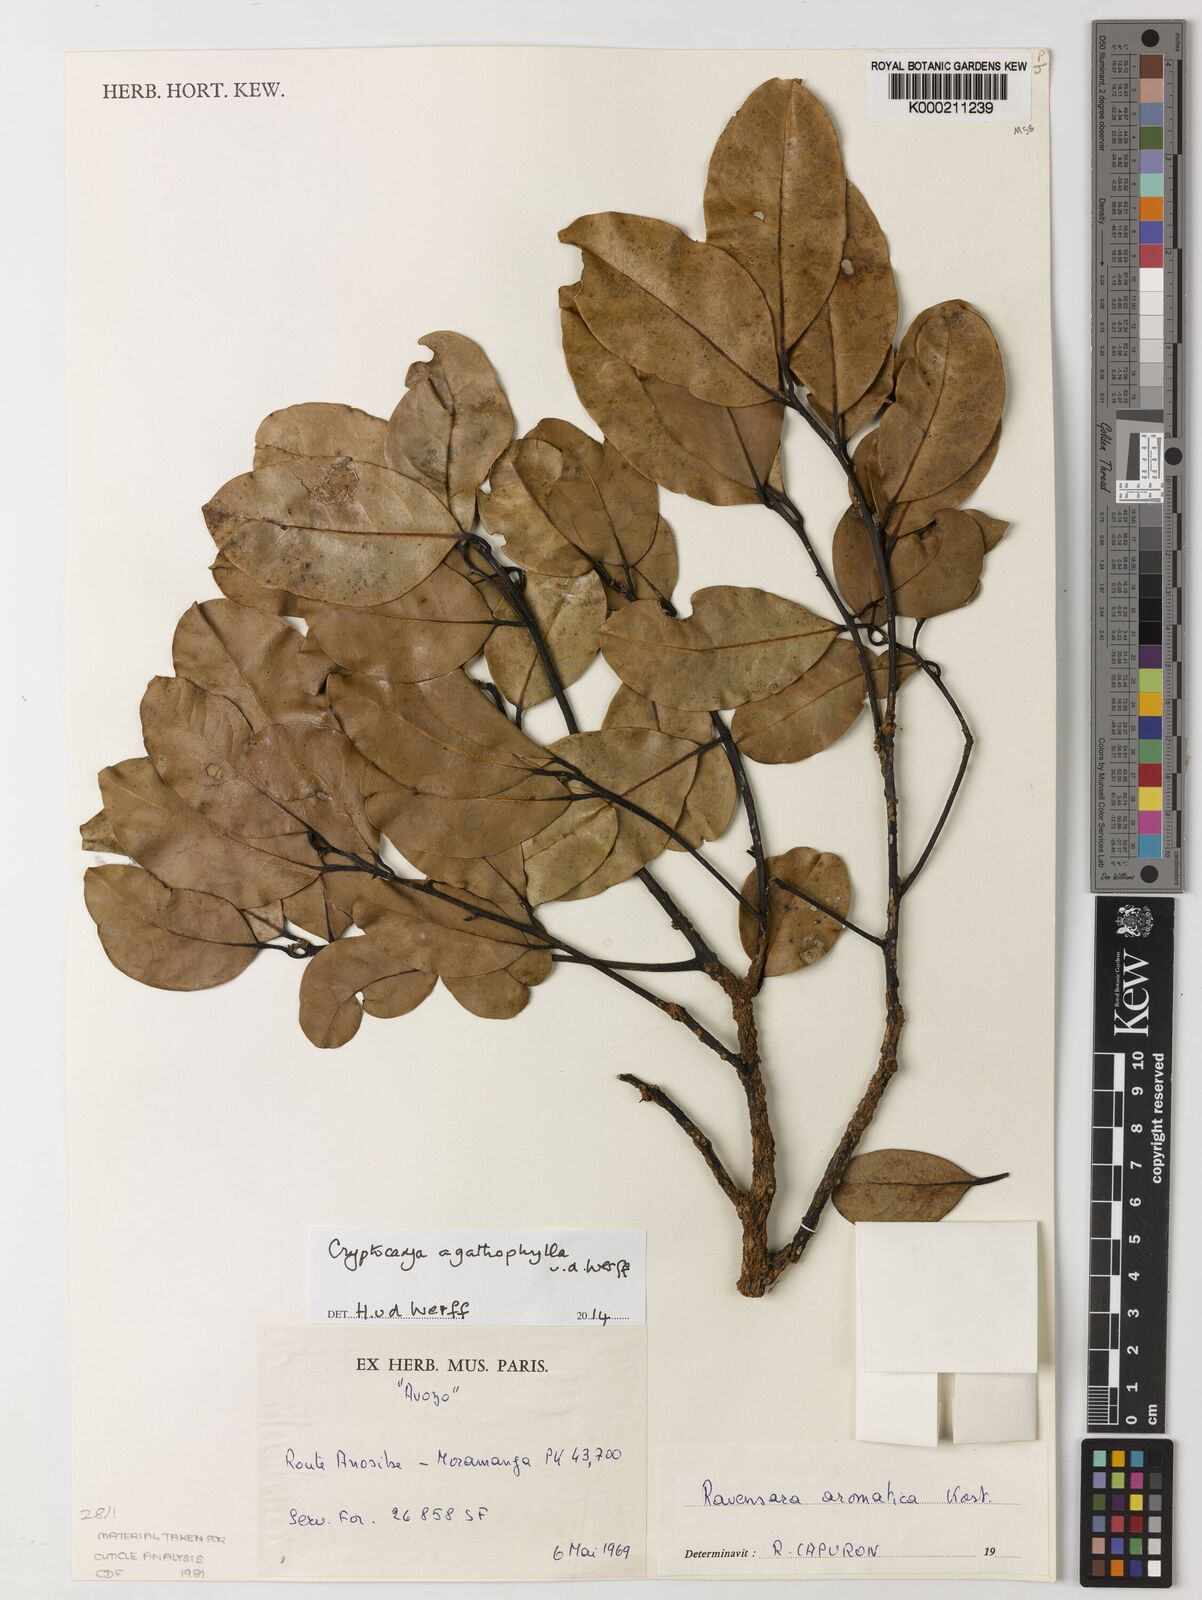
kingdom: Plantae
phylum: Tracheophyta
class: Magnoliopsida
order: Laurales
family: Lauraceae
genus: Cryptocarya
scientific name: Cryptocarya agathophylla
